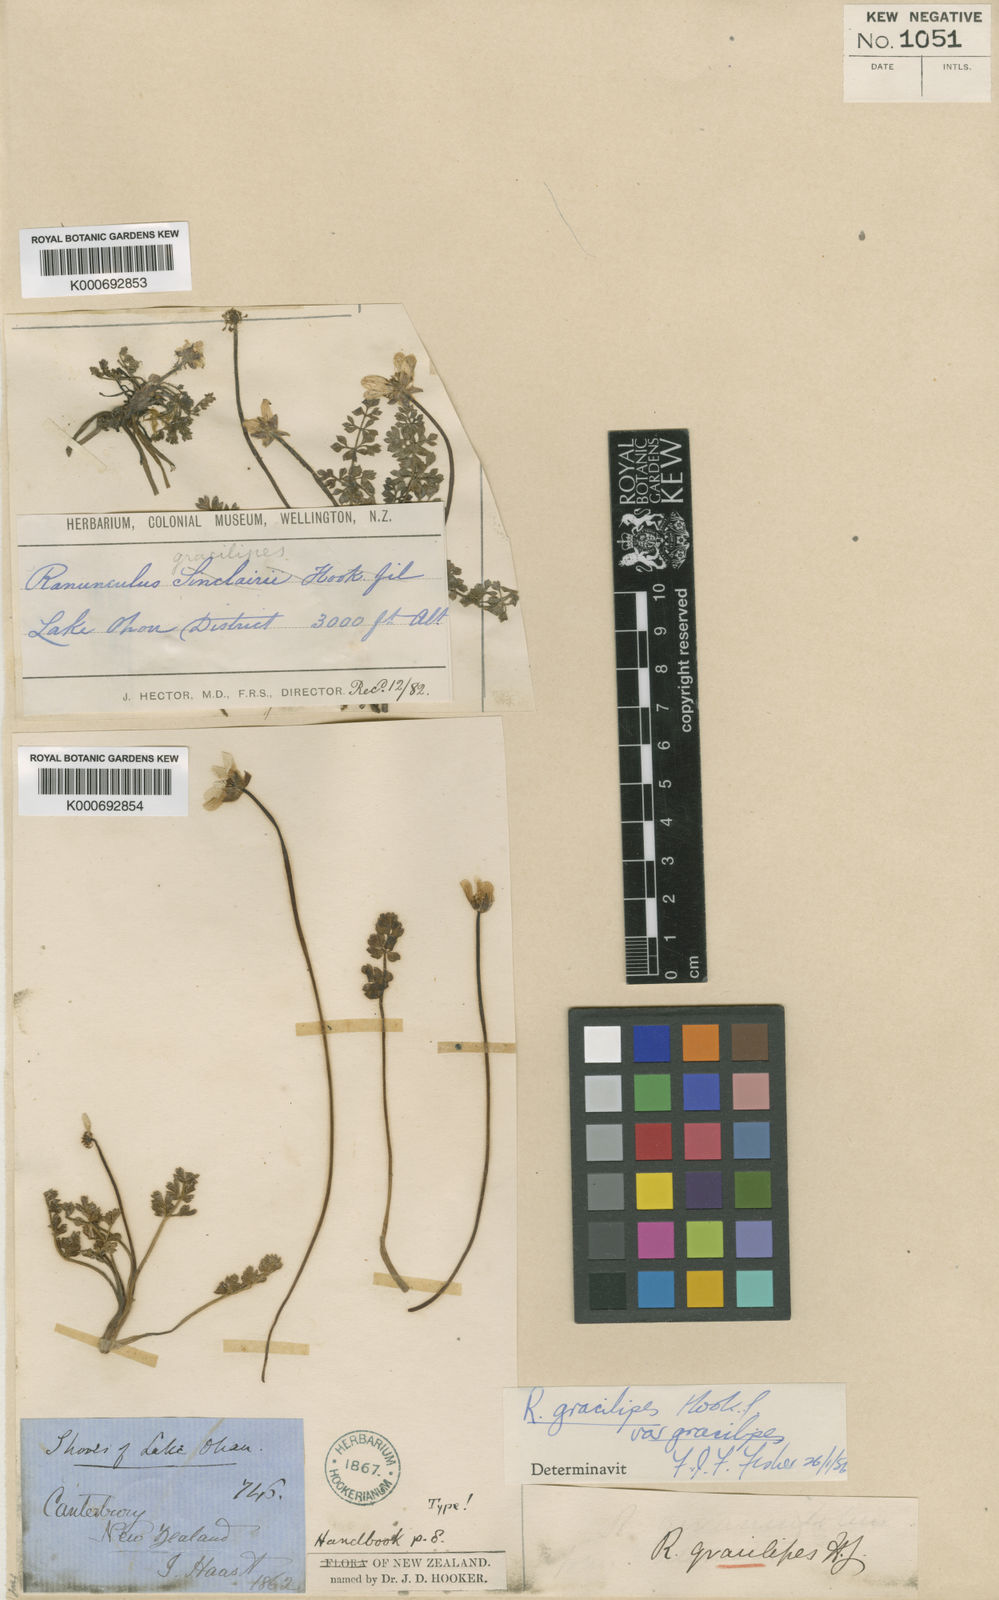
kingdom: Plantae
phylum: Tracheophyta
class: Magnoliopsida
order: Ranunculales
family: Ranunculaceae
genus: Ranunculus
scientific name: Ranunculus gracilipes
